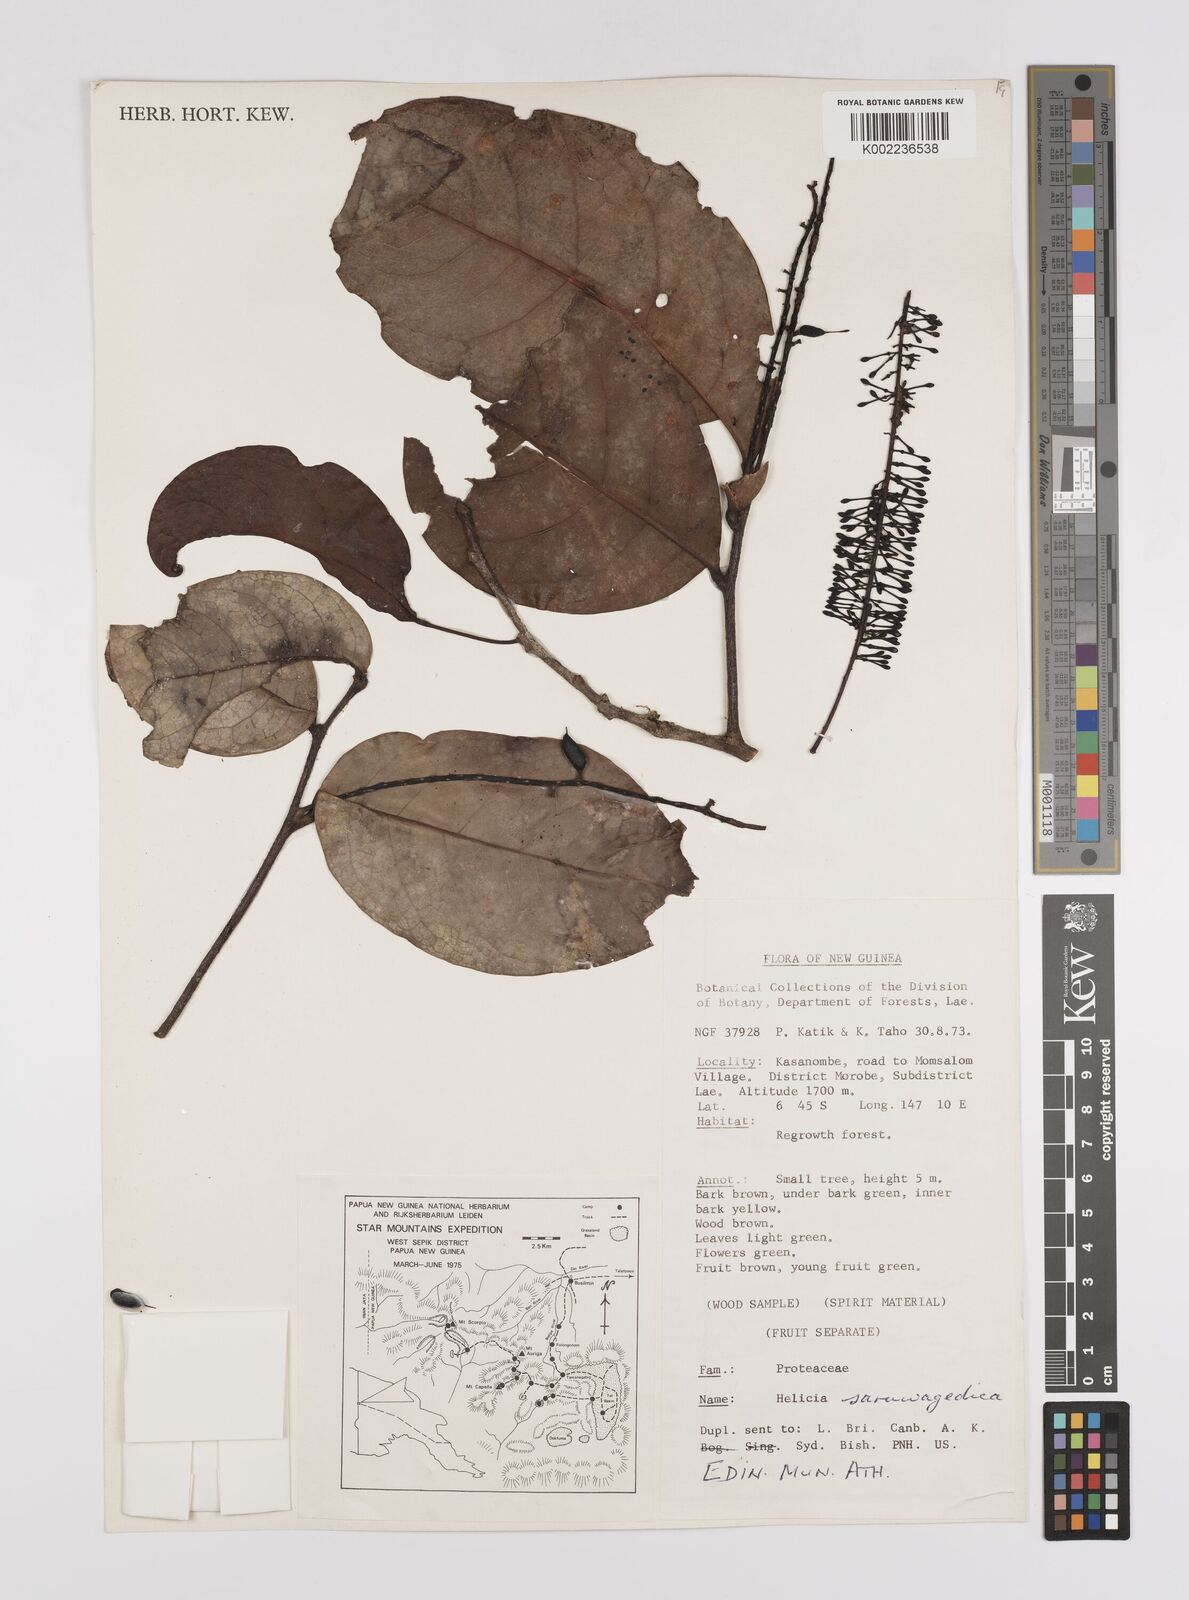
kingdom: Plantae
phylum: Tracheophyta
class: Magnoliopsida
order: Proteales
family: Proteaceae
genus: Helicia
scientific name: Helicia saruwagedica
